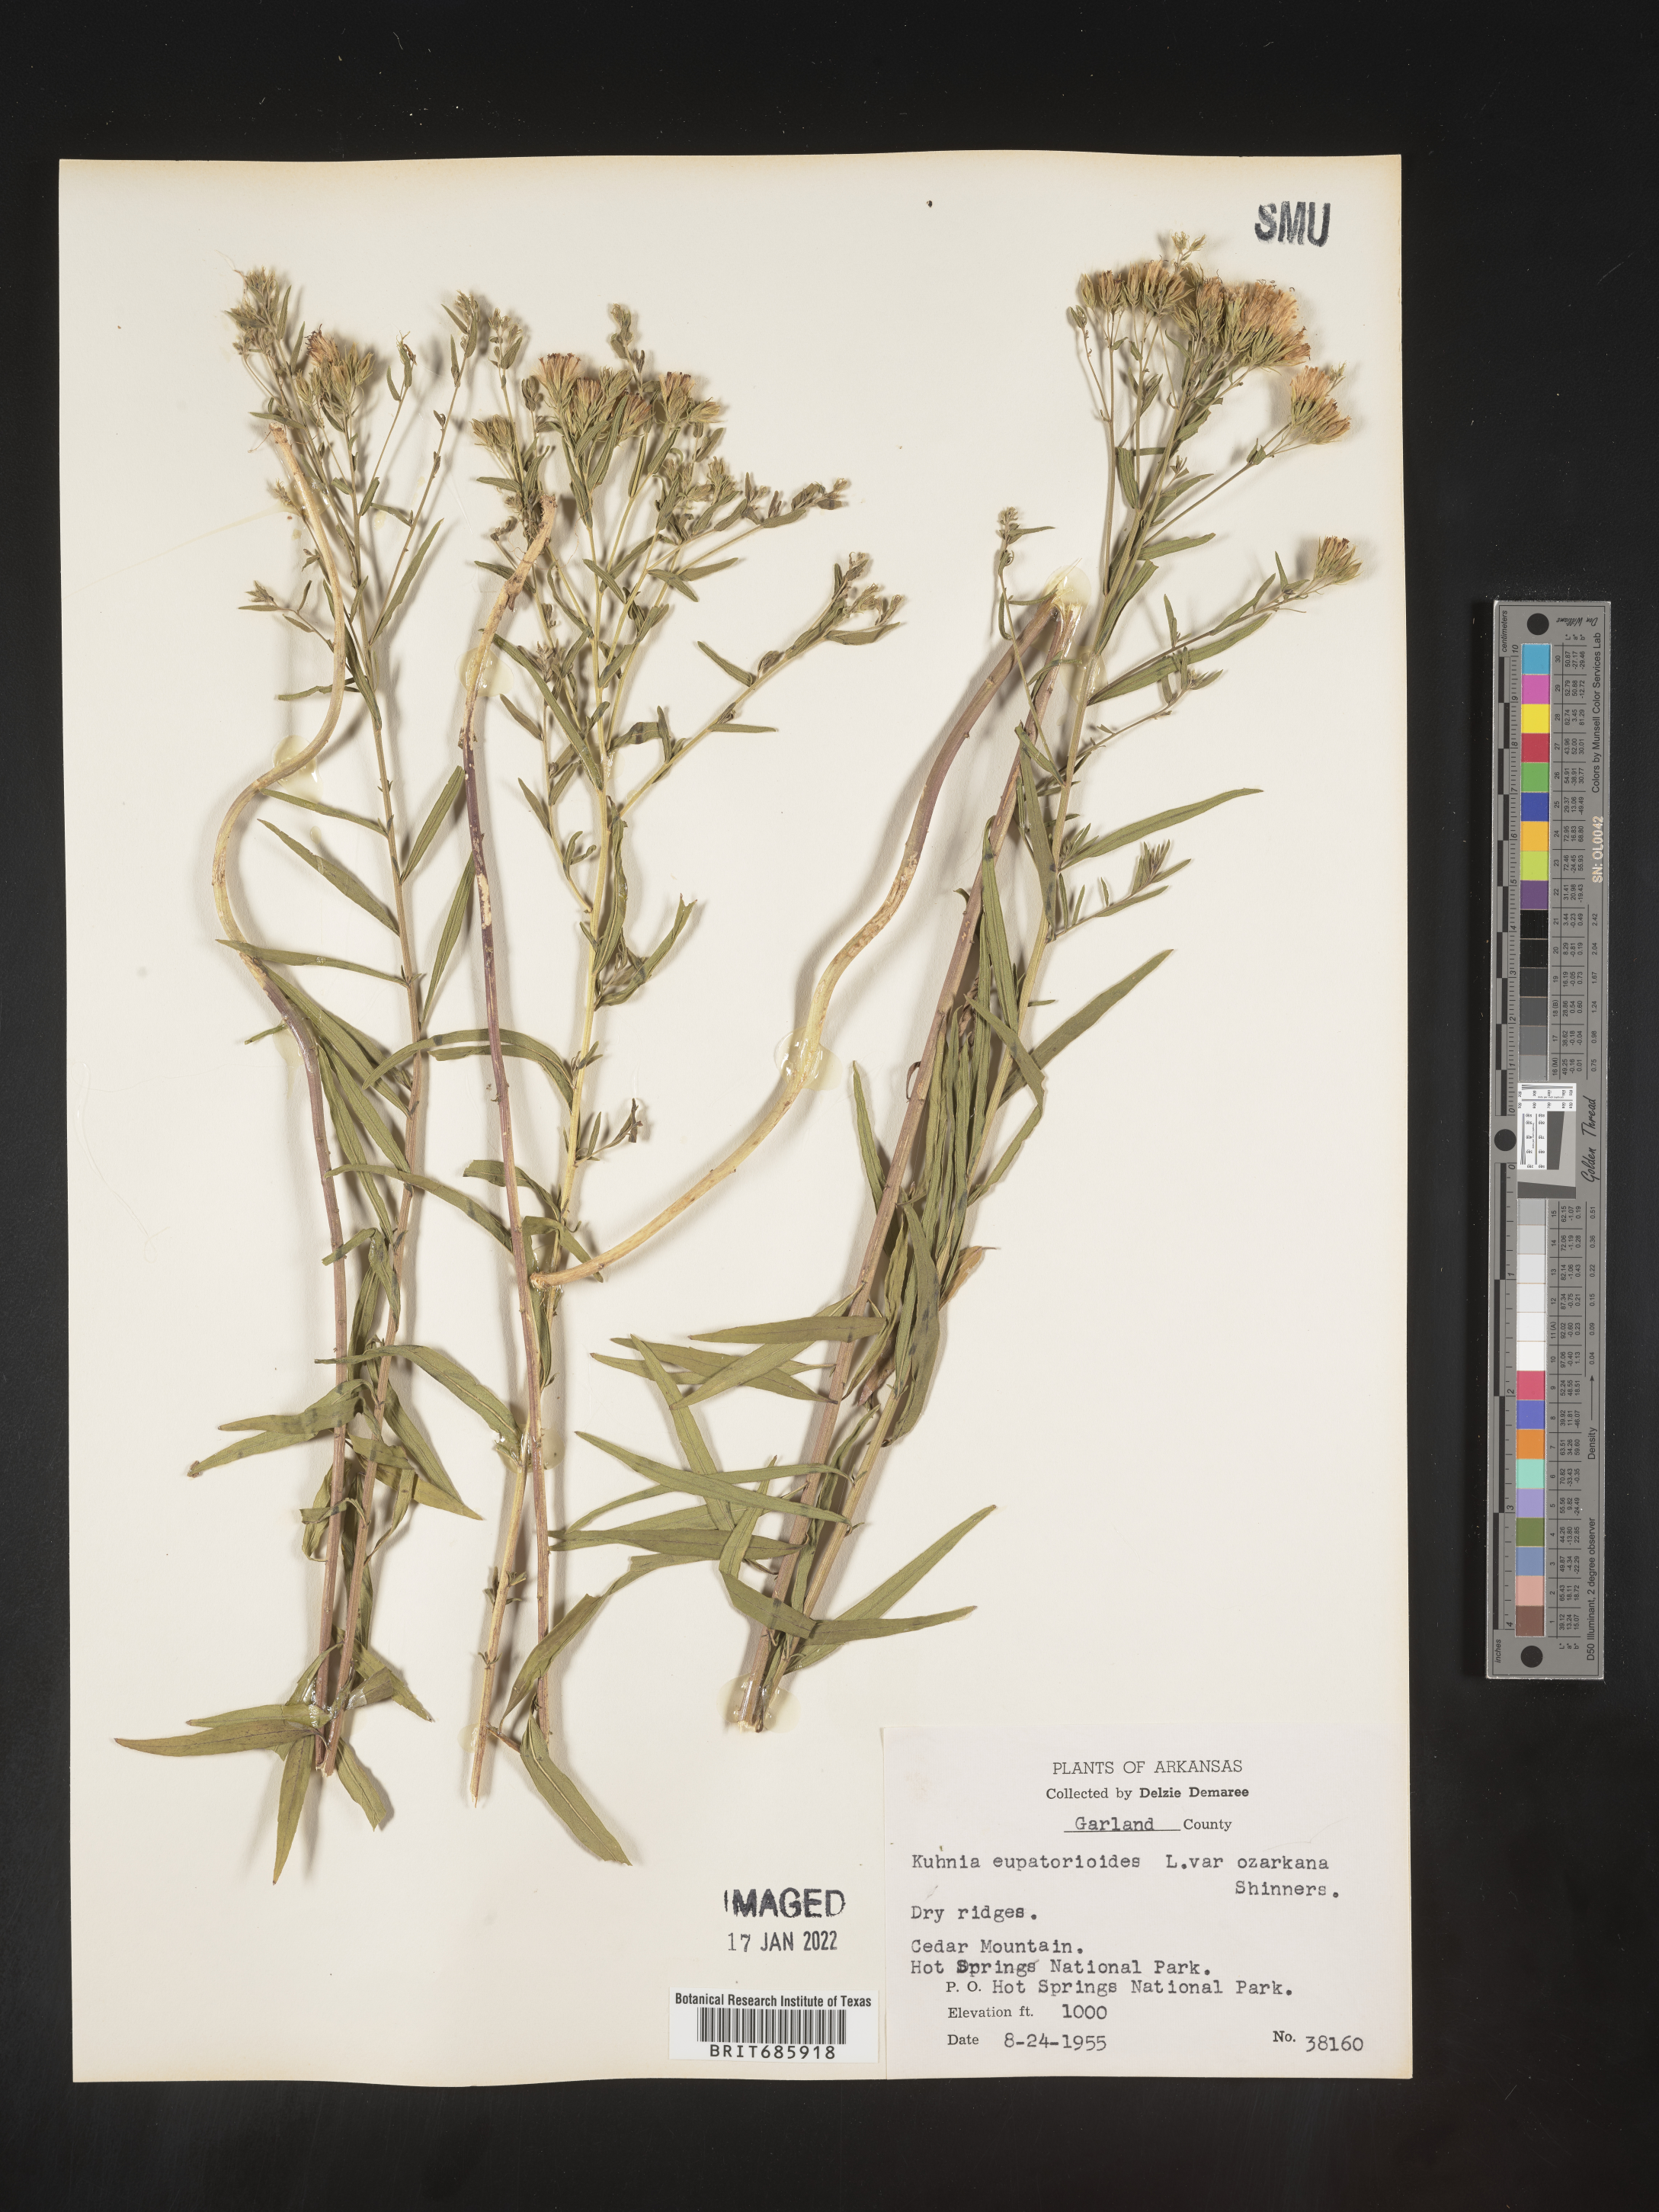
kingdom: Plantae
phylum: Tracheophyta
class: Magnoliopsida
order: Asterales
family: Asteraceae
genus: Brickellia
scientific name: Brickellia ozarkana
